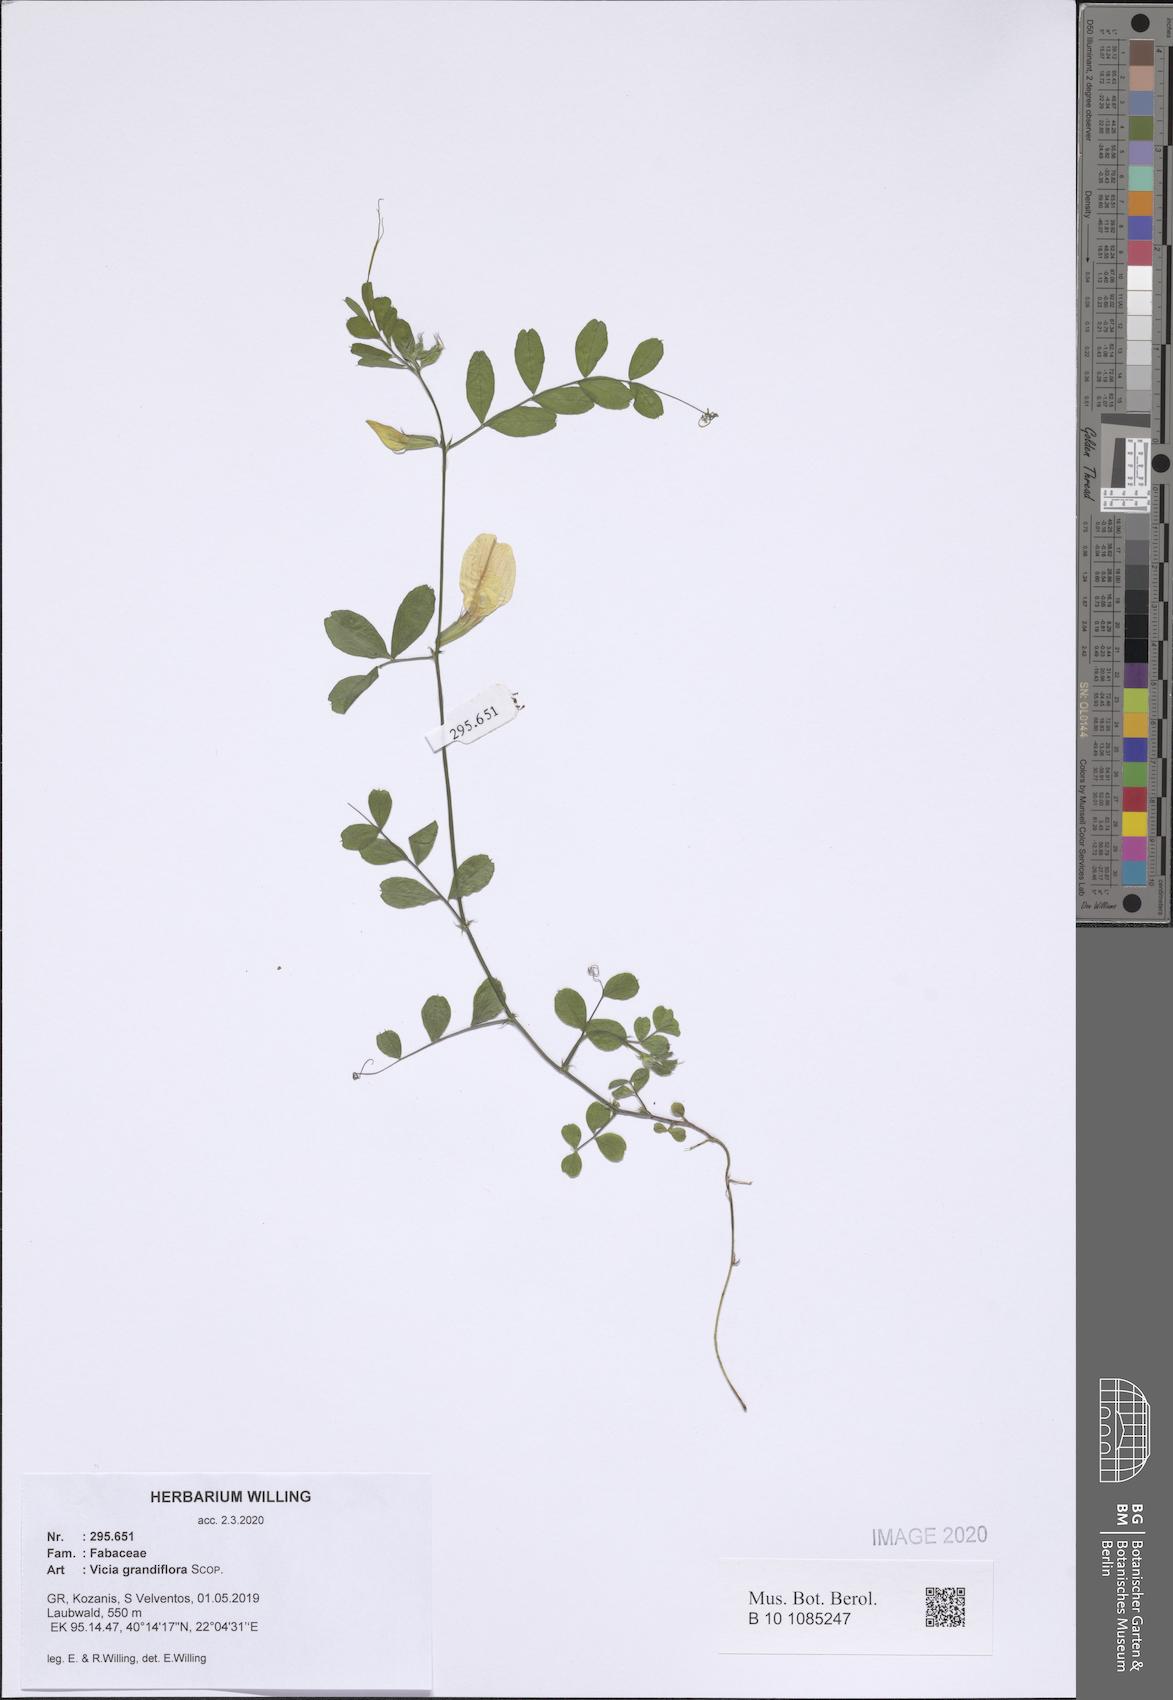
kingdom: Plantae
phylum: Tracheophyta
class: Magnoliopsida
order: Fabales
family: Fabaceae
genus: Vicia
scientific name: Vicia grandiflora
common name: Large yellow vetch
